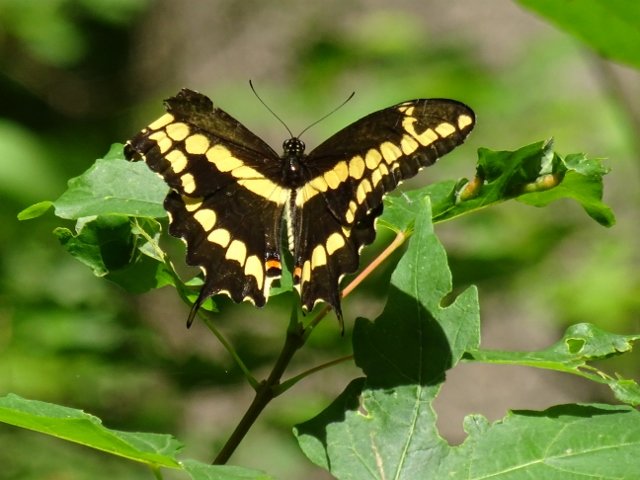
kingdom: Animalia
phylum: Arthropoda
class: Insecta
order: Lepidoptera
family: Papilionidae
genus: Papilio
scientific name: Papilio cresphontes
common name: Eastern Giant Swallowtail
